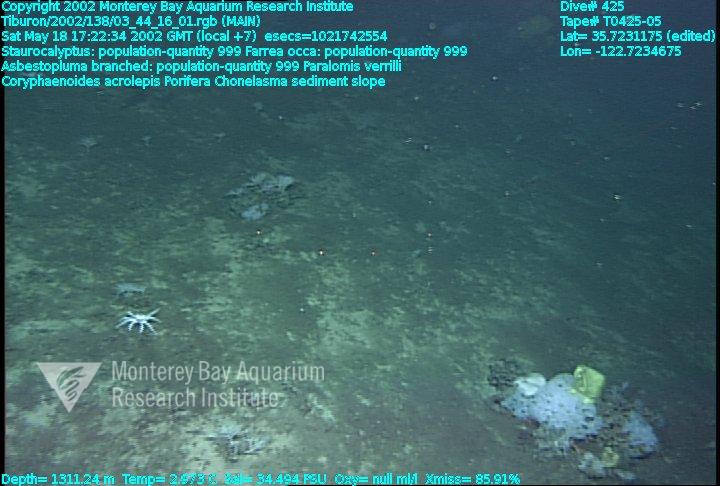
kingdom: Animalia
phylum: Porifera
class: Hexactinellida
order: Lyssacinosida
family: Rossellidae
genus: Staurocalyptus
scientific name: Staurocalyptus
